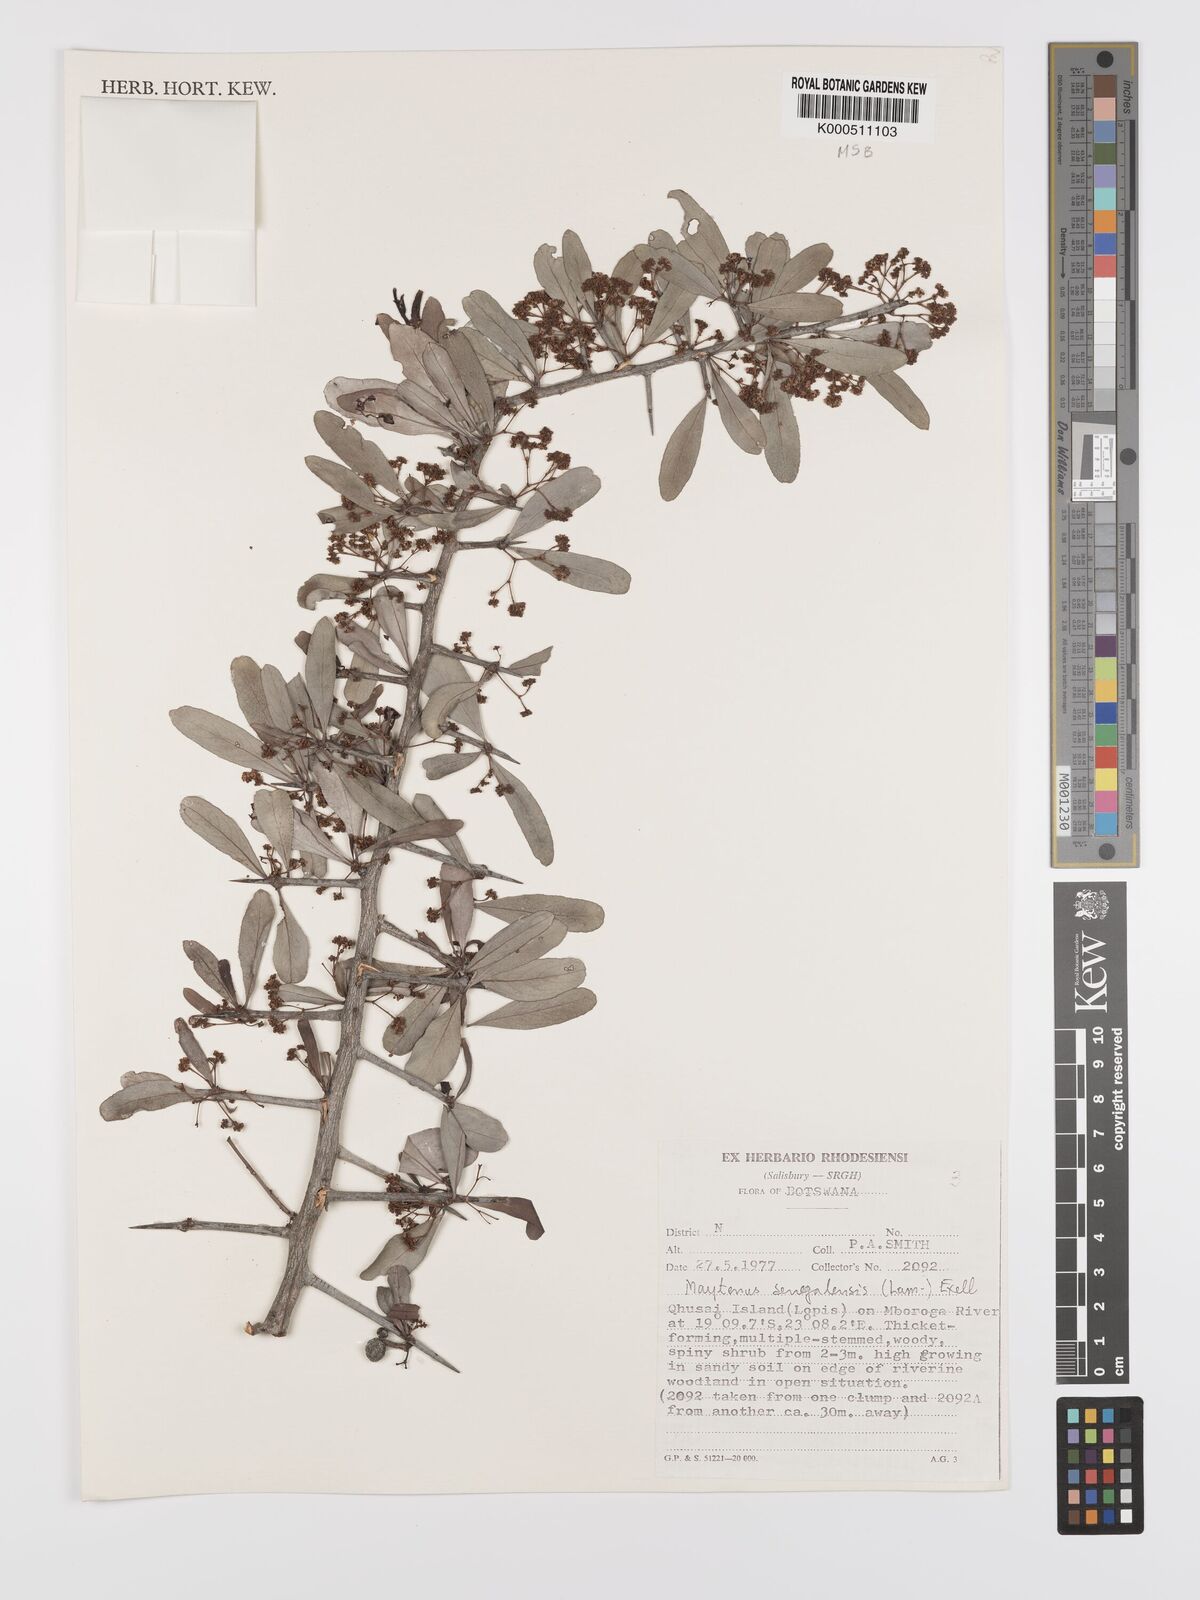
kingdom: Plantae
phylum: Tracheophyta
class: Magnoliopsida
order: Celastrales
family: Celastraceae
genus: Gymnosporia
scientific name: Gymnosporia senegalensis
